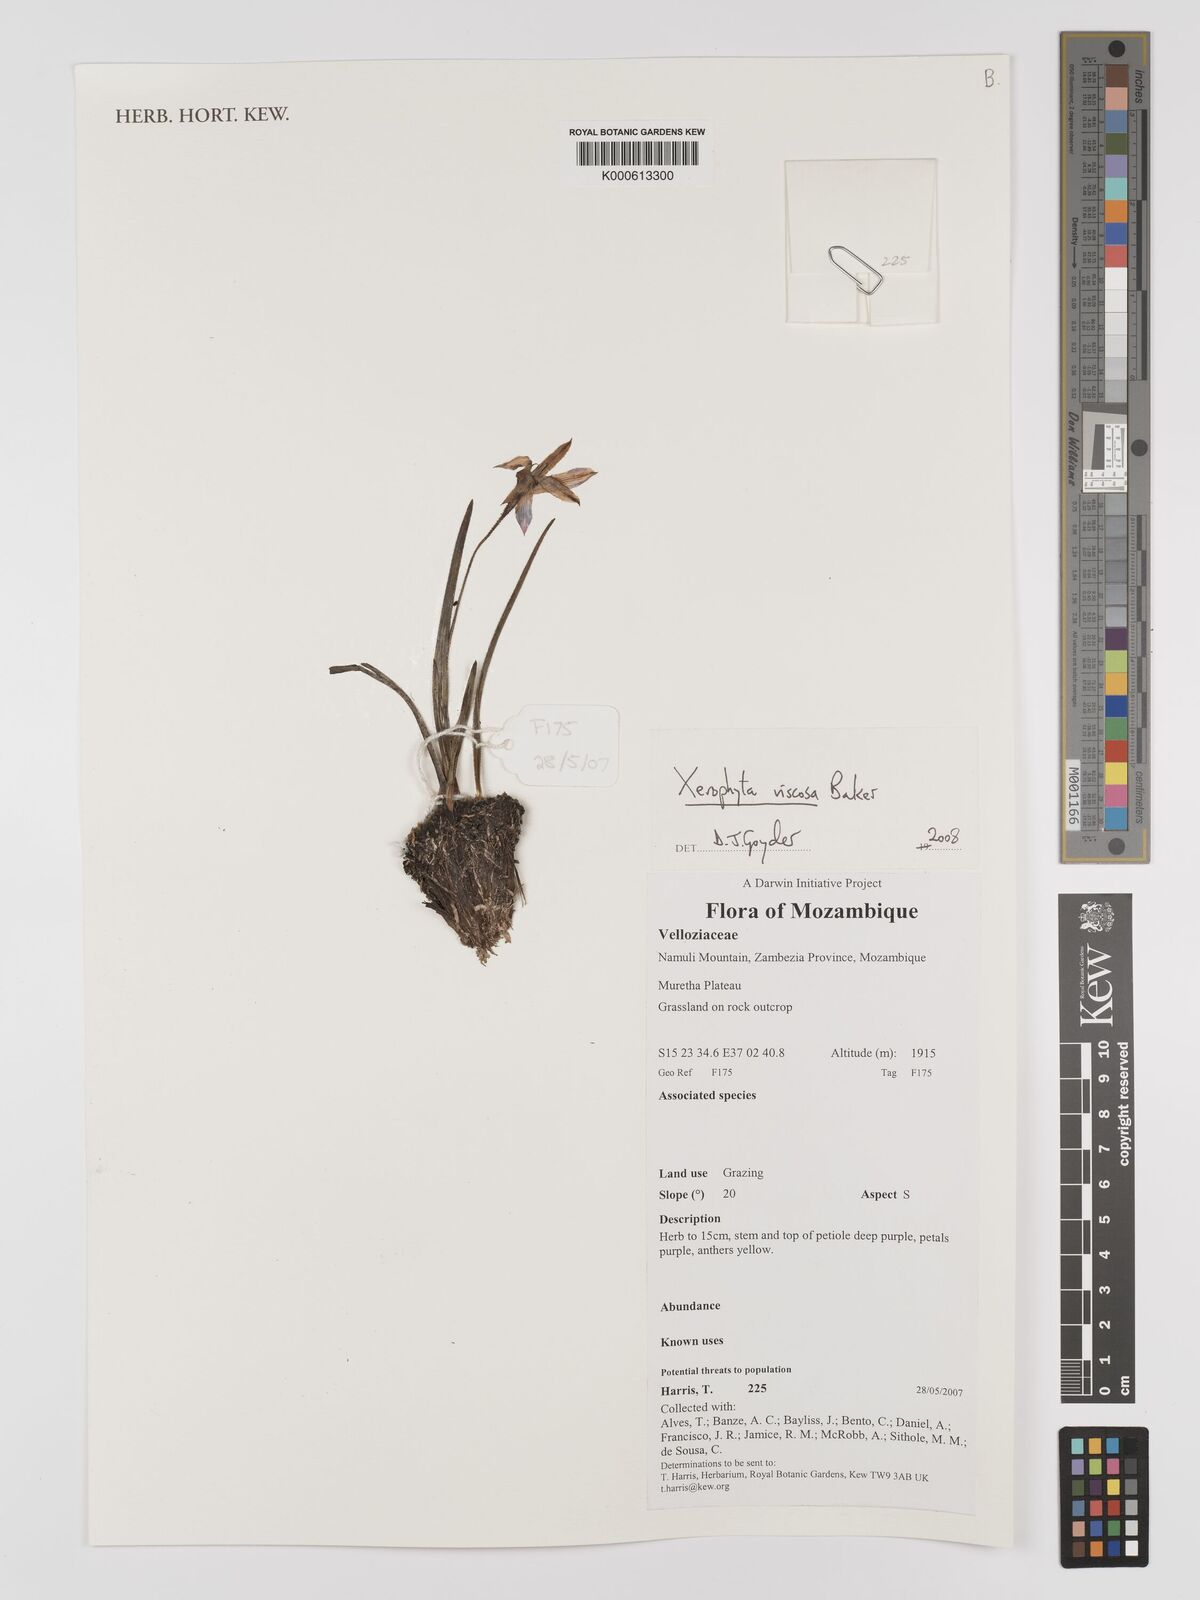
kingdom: Plantae
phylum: Tracheophyta
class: Liliopsida
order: Pandanales
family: Velloziaceae
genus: Xerophyta
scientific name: Xerophyta viscosa
